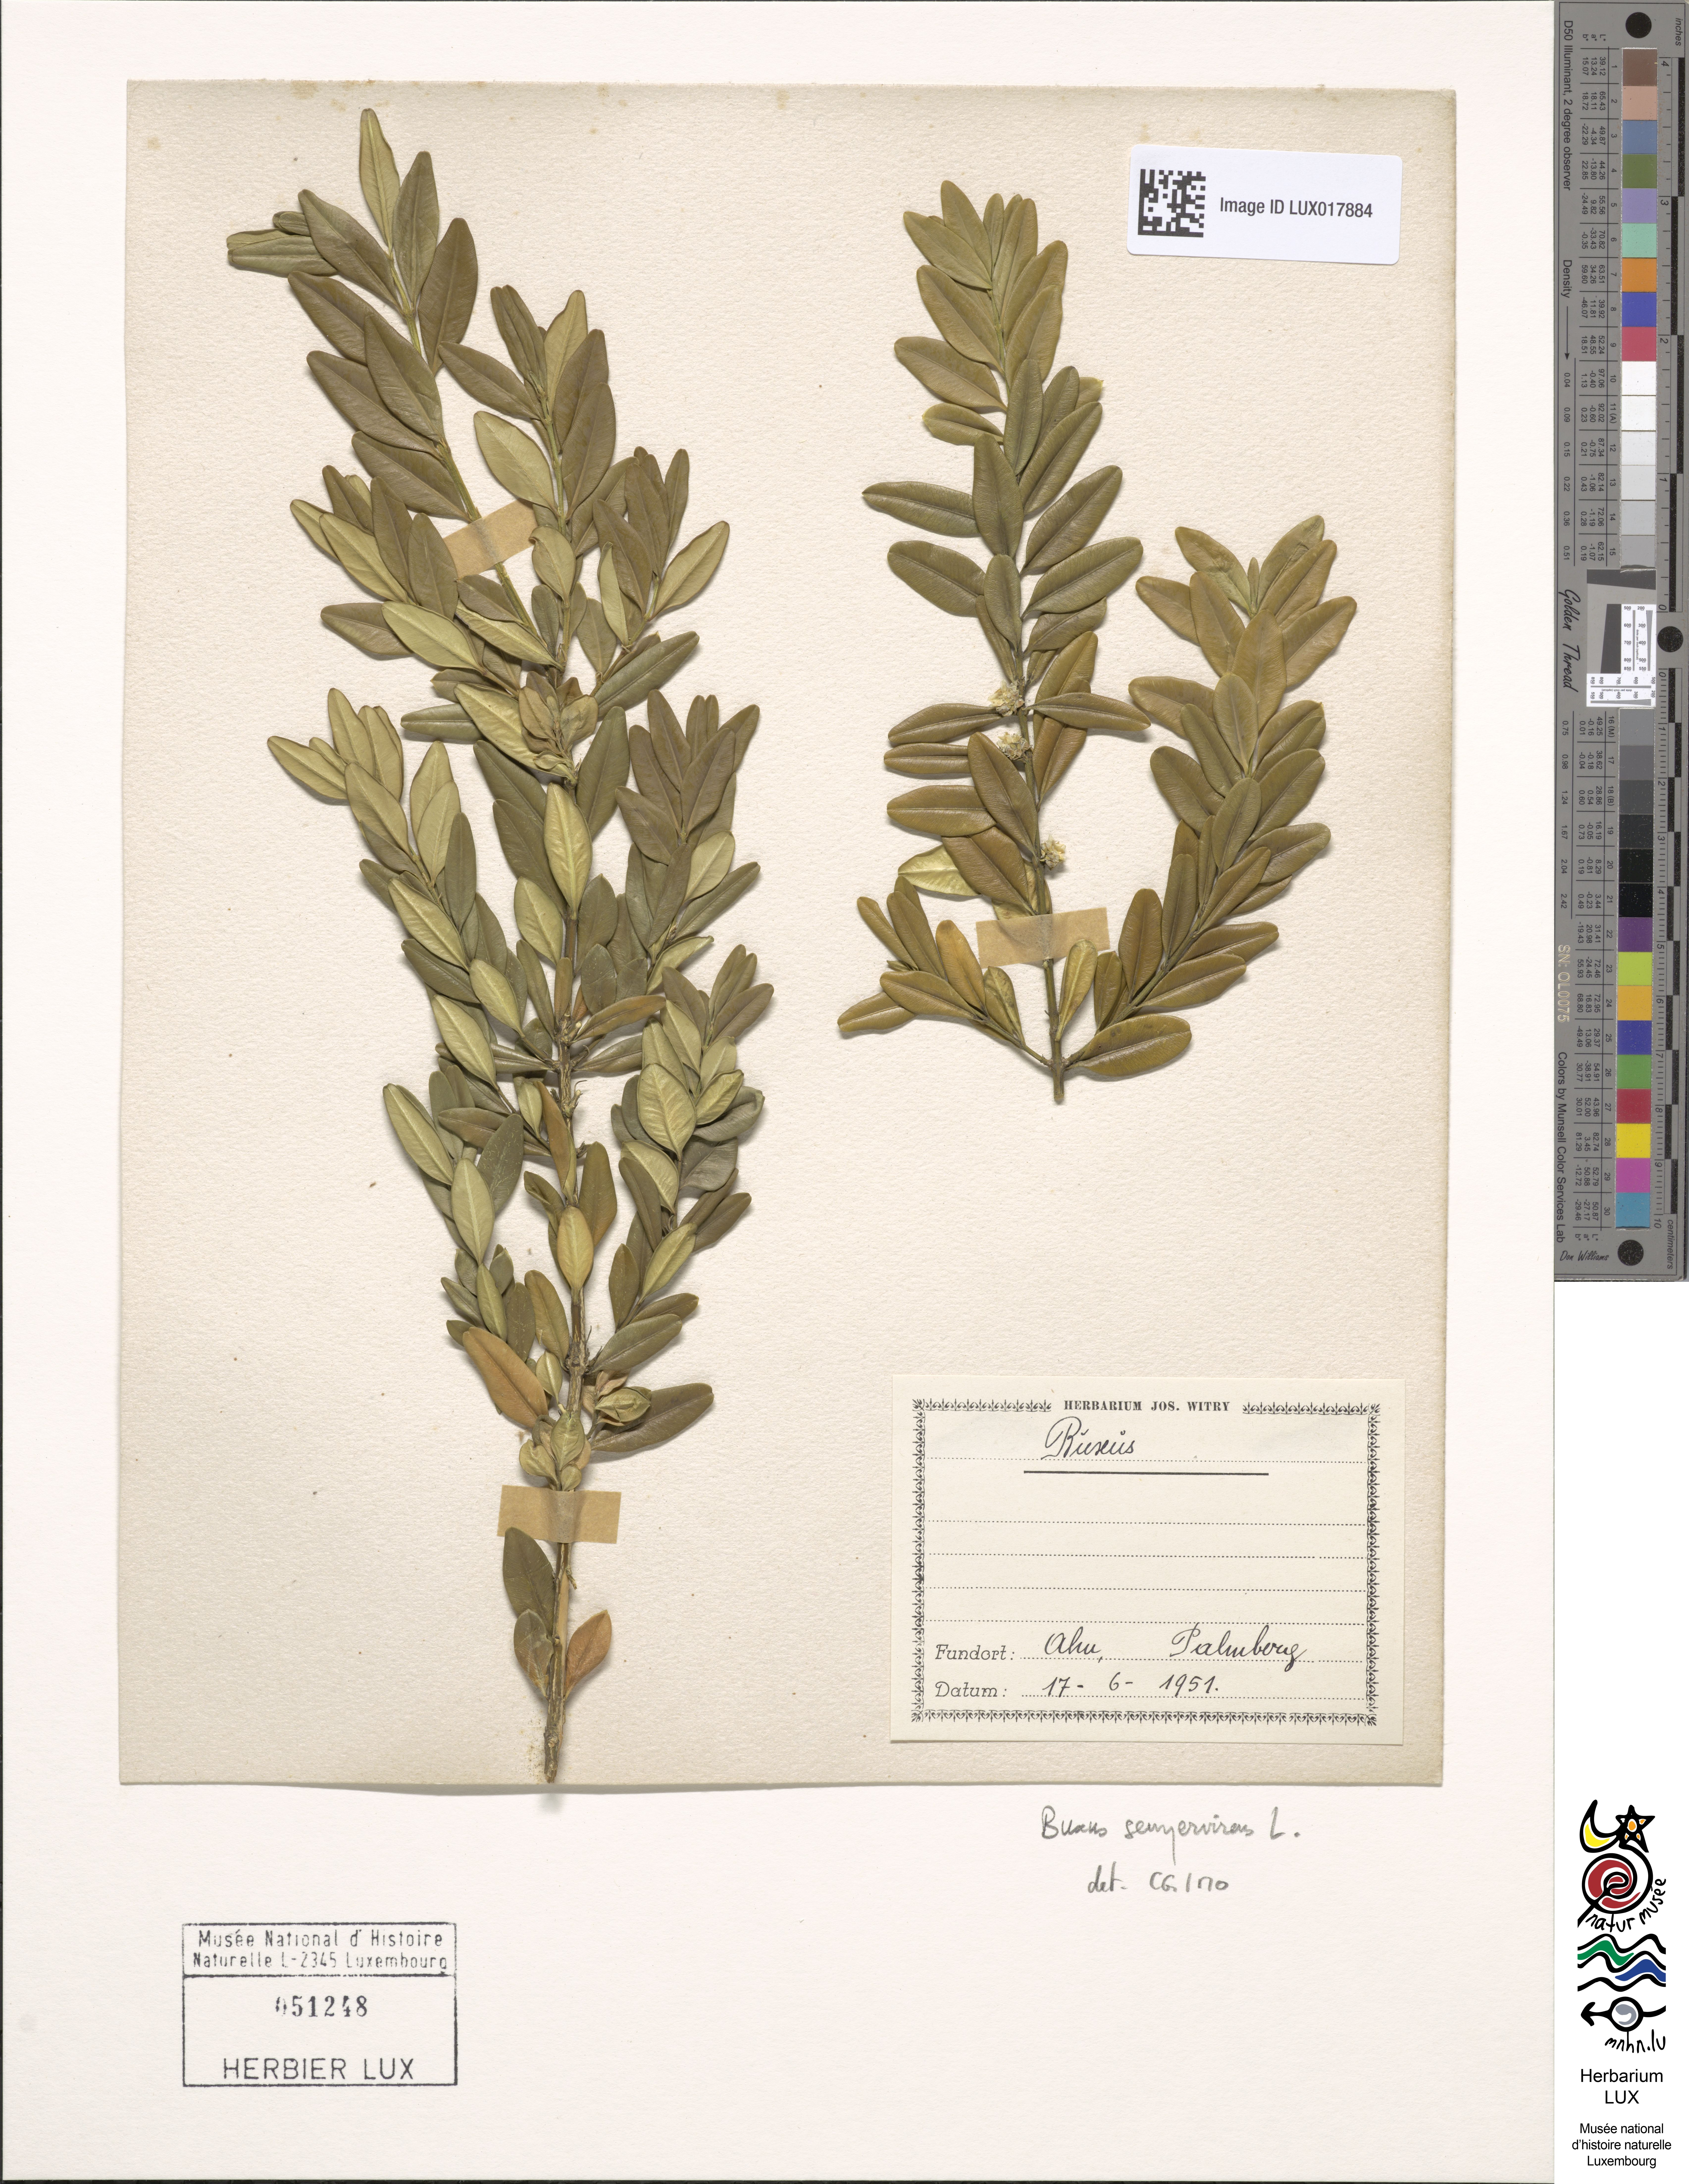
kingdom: Plantae
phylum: Tracheophyta
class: Magnoliopsida
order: Buxales
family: Buxaceae
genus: Buxus
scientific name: Buxus sempervirens
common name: Box
